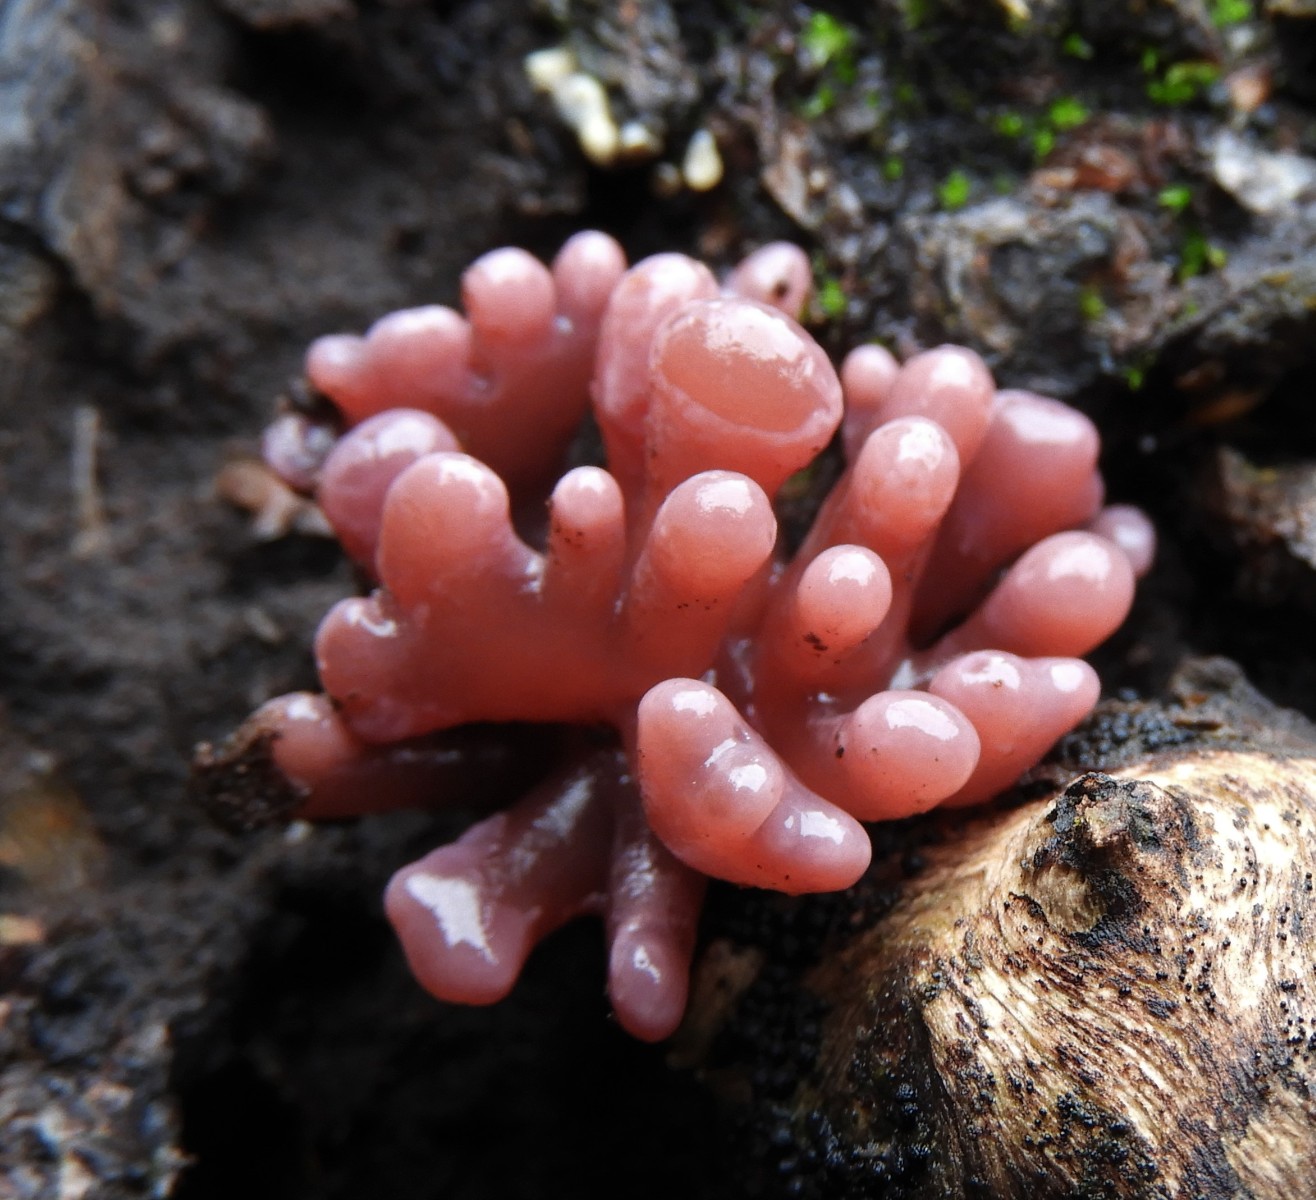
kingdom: Fungi
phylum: Ascomycota
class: Leotiomycetes
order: Helotiales
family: Gelatinodiscaceae
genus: Ascocoryne
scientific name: Ascocoryne sarcoides
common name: rødlilla sejskive
